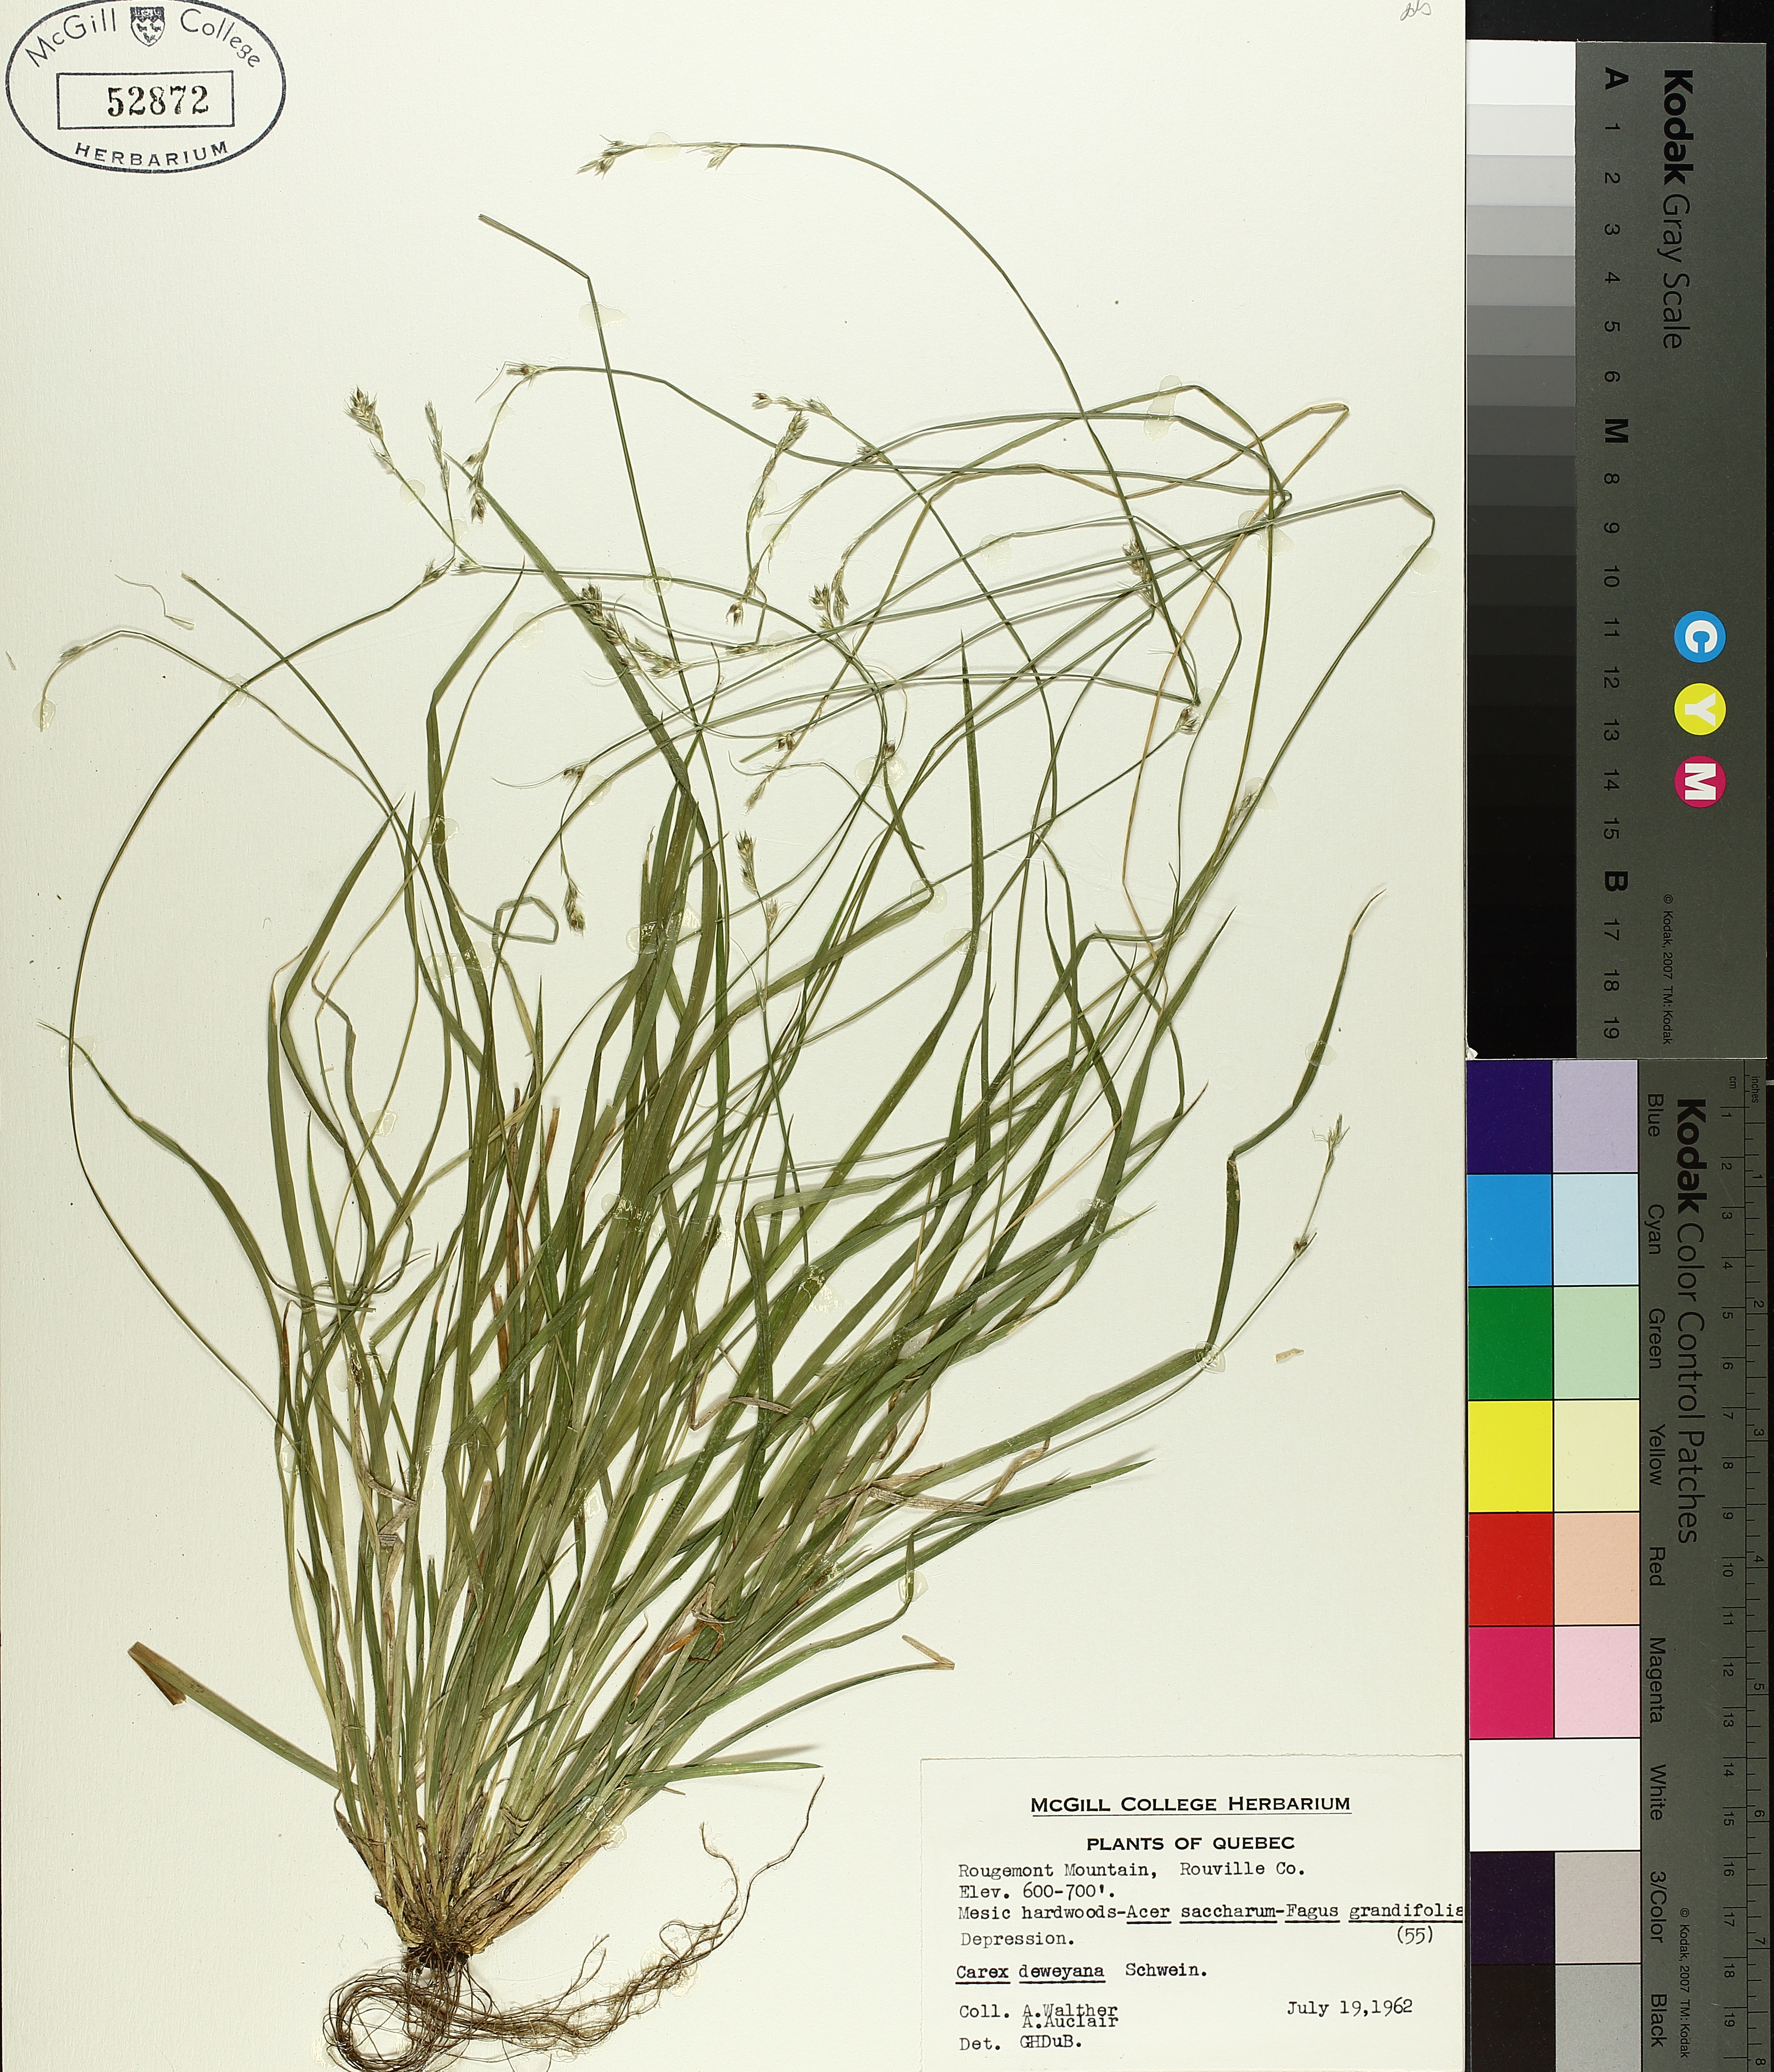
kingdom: Plantae
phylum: Tracheophyta
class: Liliopsida
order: Poales
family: Cyperaceae
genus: Carex
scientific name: Carex deweyana
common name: Dewey's sedge
